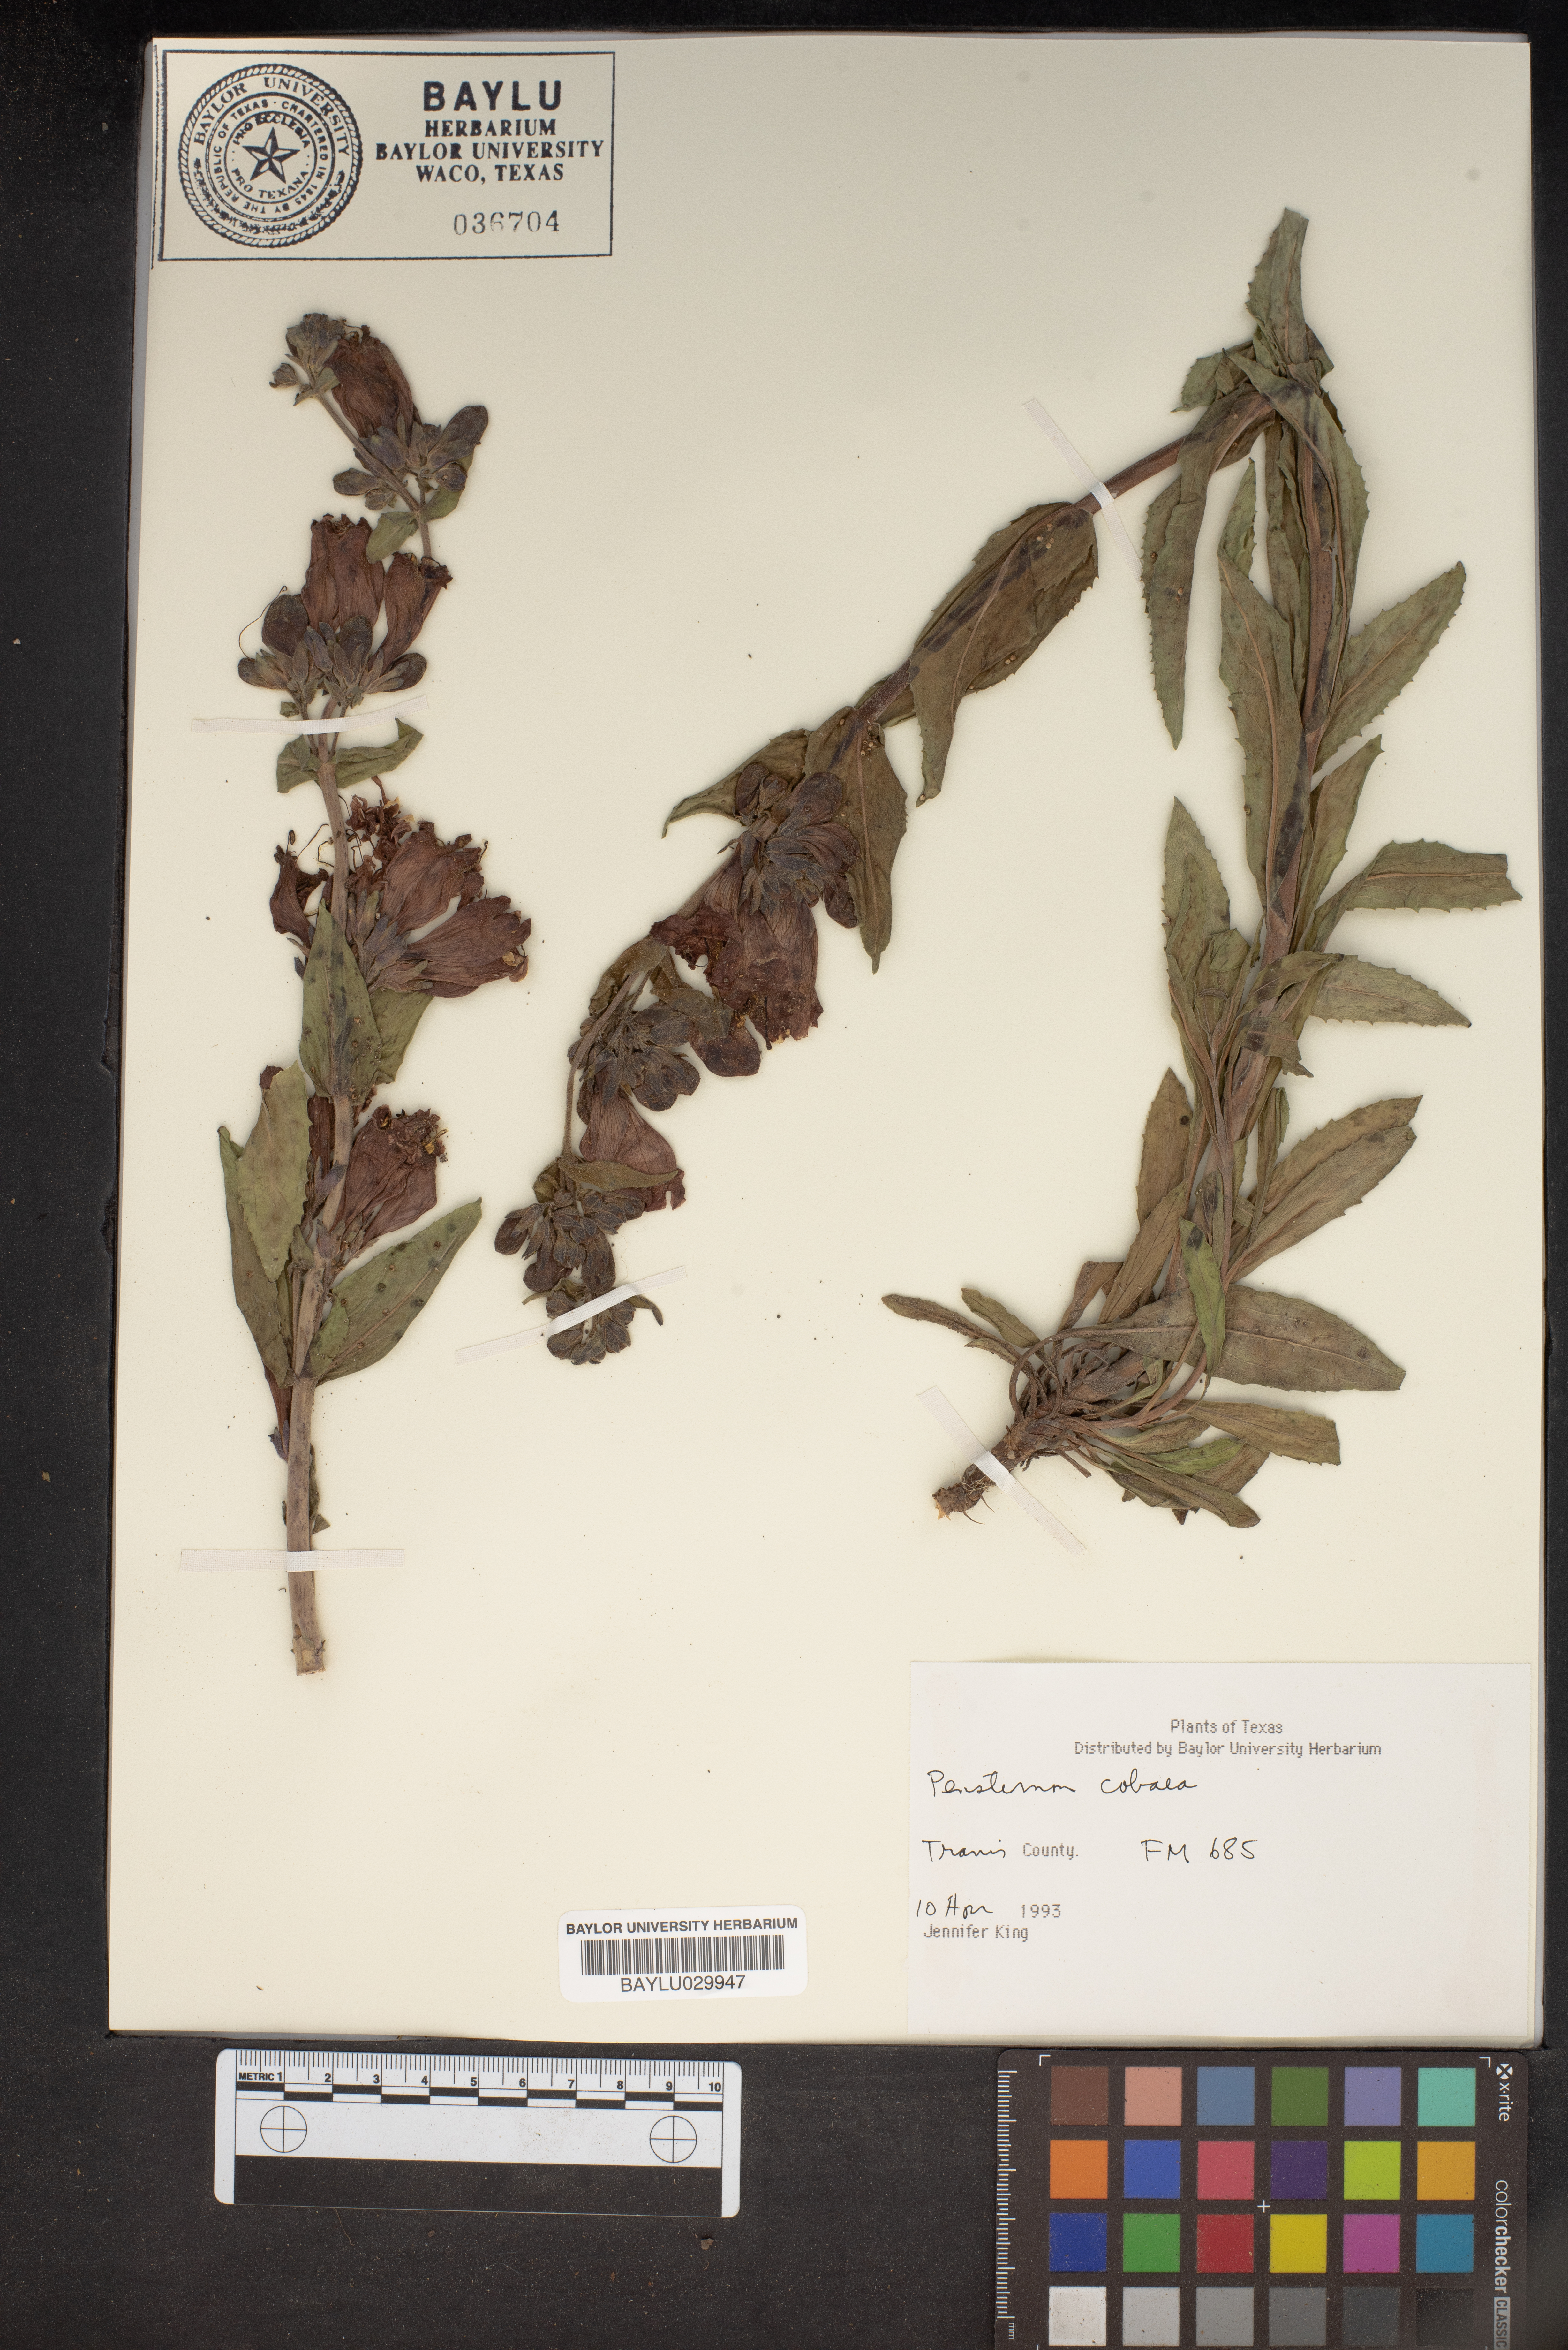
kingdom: Plantae
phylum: Tracheophyta
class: Magnoliopsida
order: Lamiales
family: Plantaginaceae
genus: Penstemon
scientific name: Penstemon cobaea
